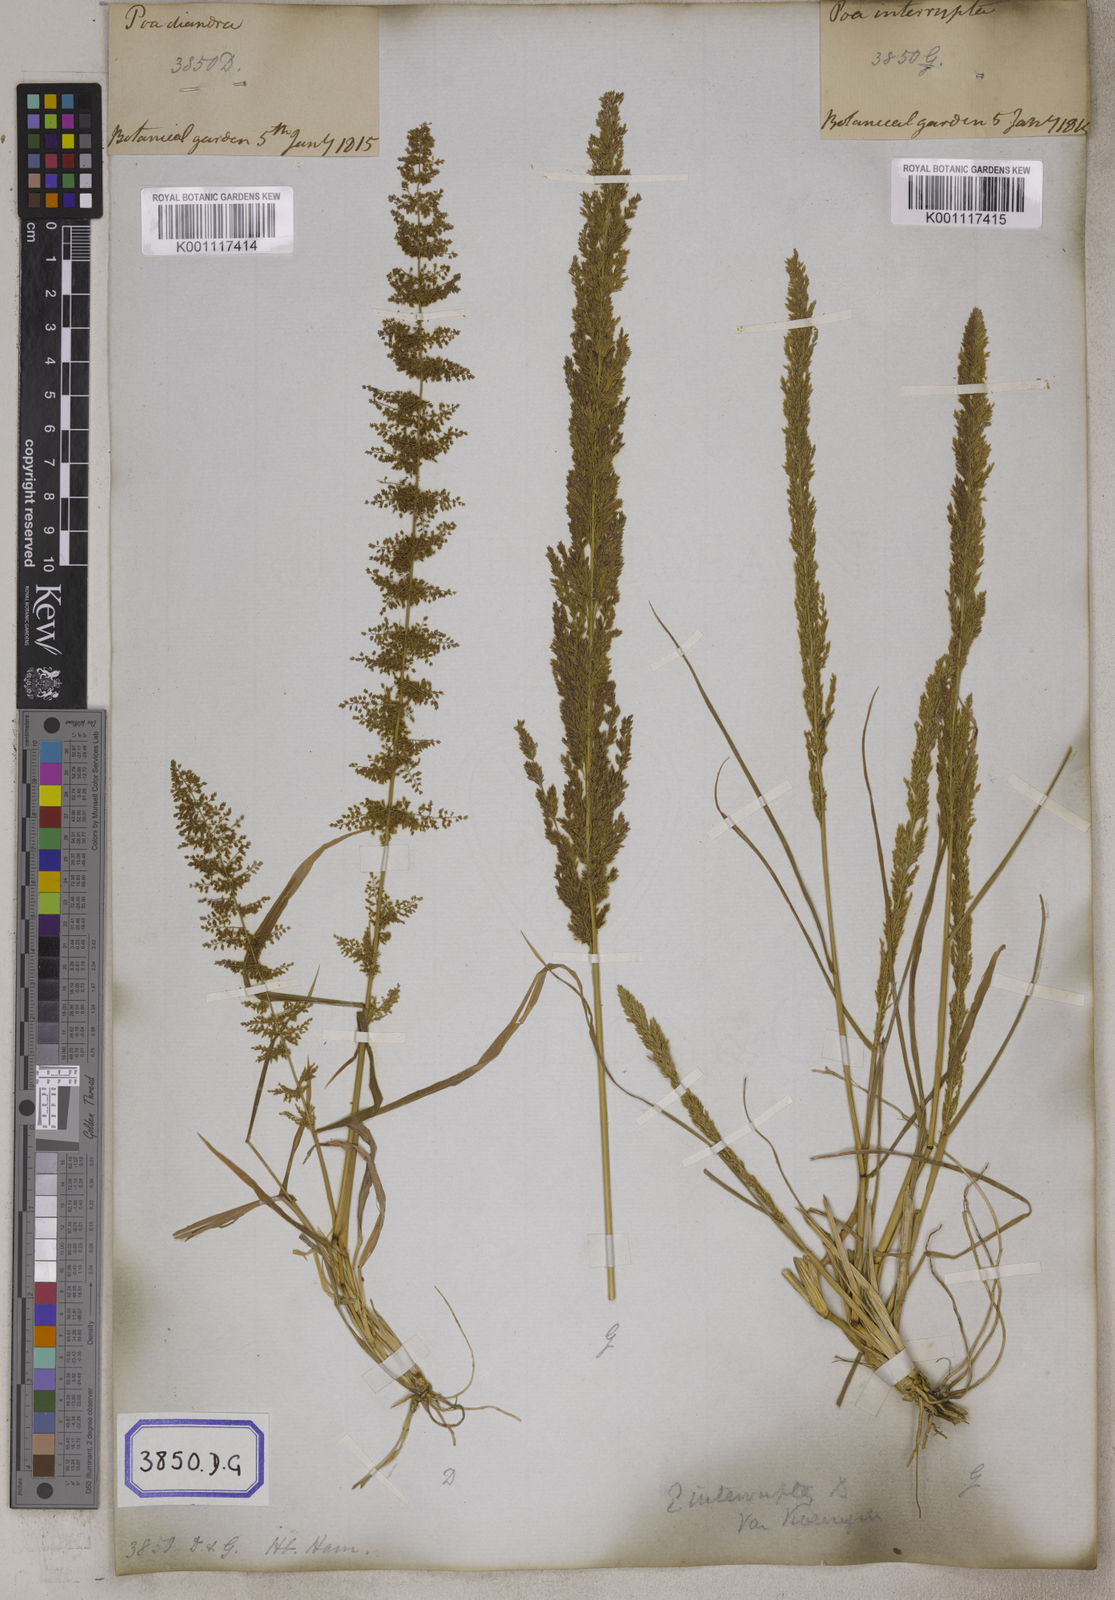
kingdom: Plantae
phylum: Tracheophyta
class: Liliopsida
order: Poales
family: Poaceae
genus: Eragrostis
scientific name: Eragrostis
